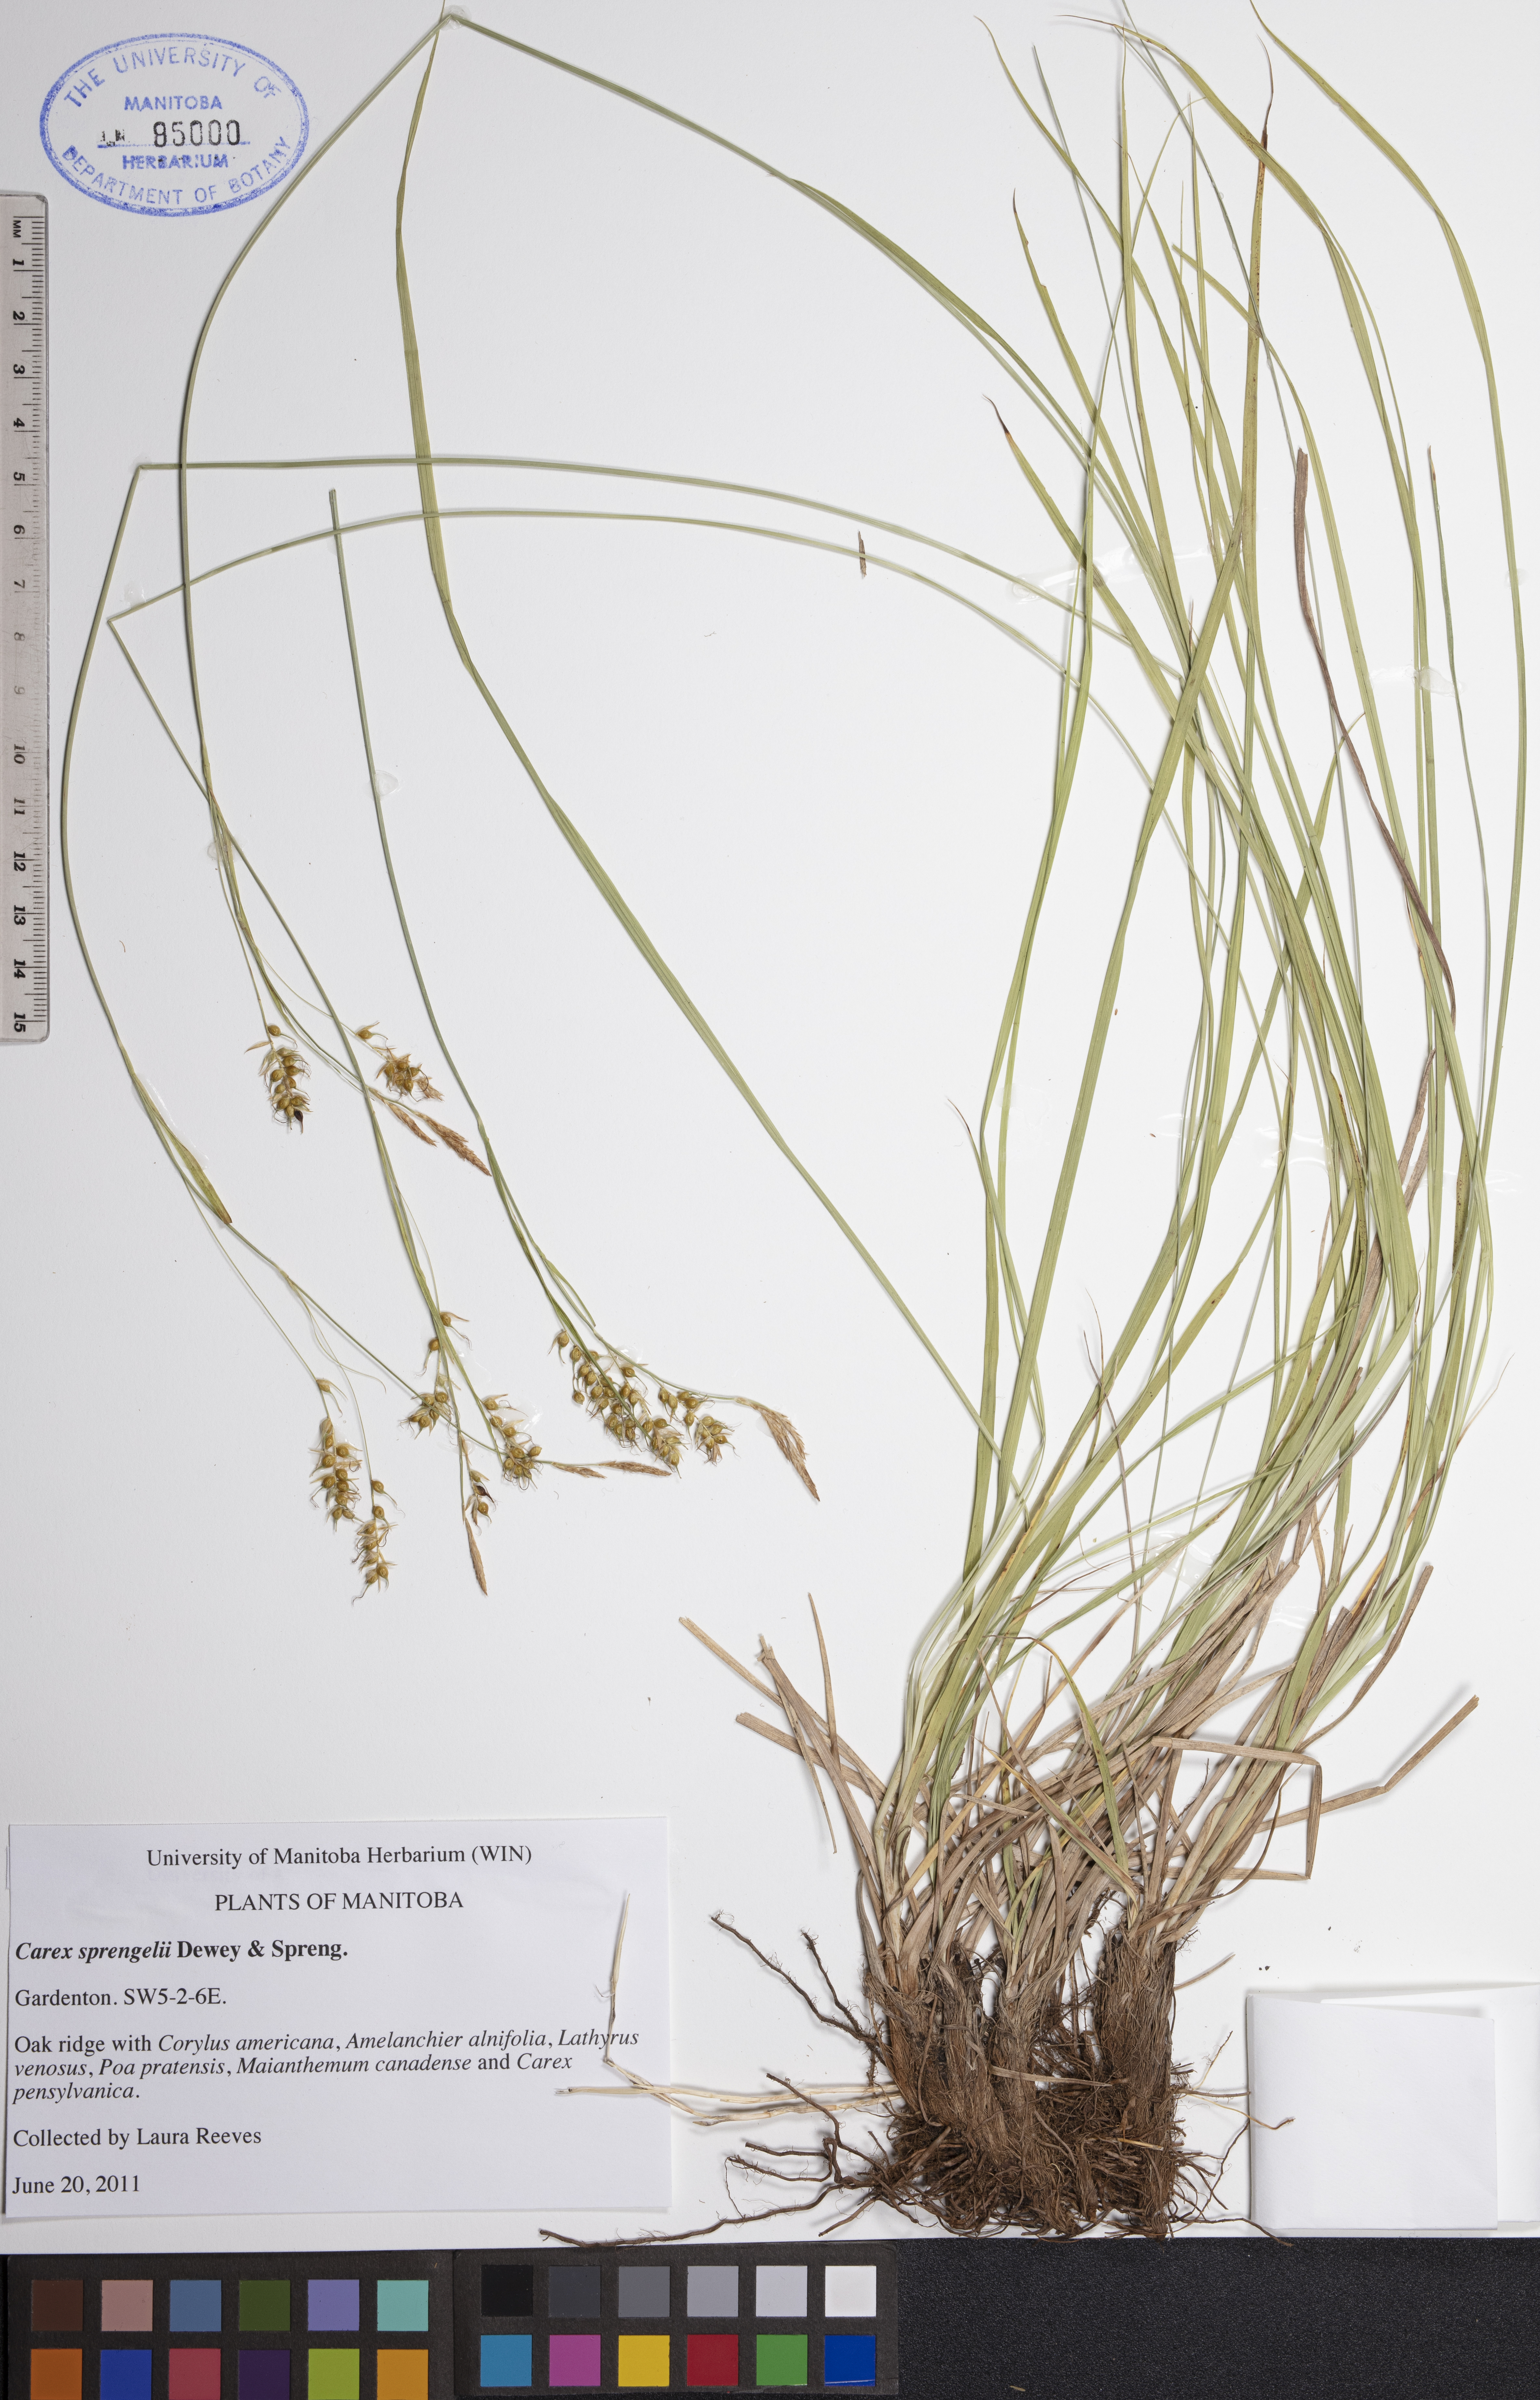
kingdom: Plantae
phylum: Tracheophyta
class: Liliopsida
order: Poales
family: Cyperaceae
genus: Carex
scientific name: Carex sprengelii
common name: Long-beaked sedge
